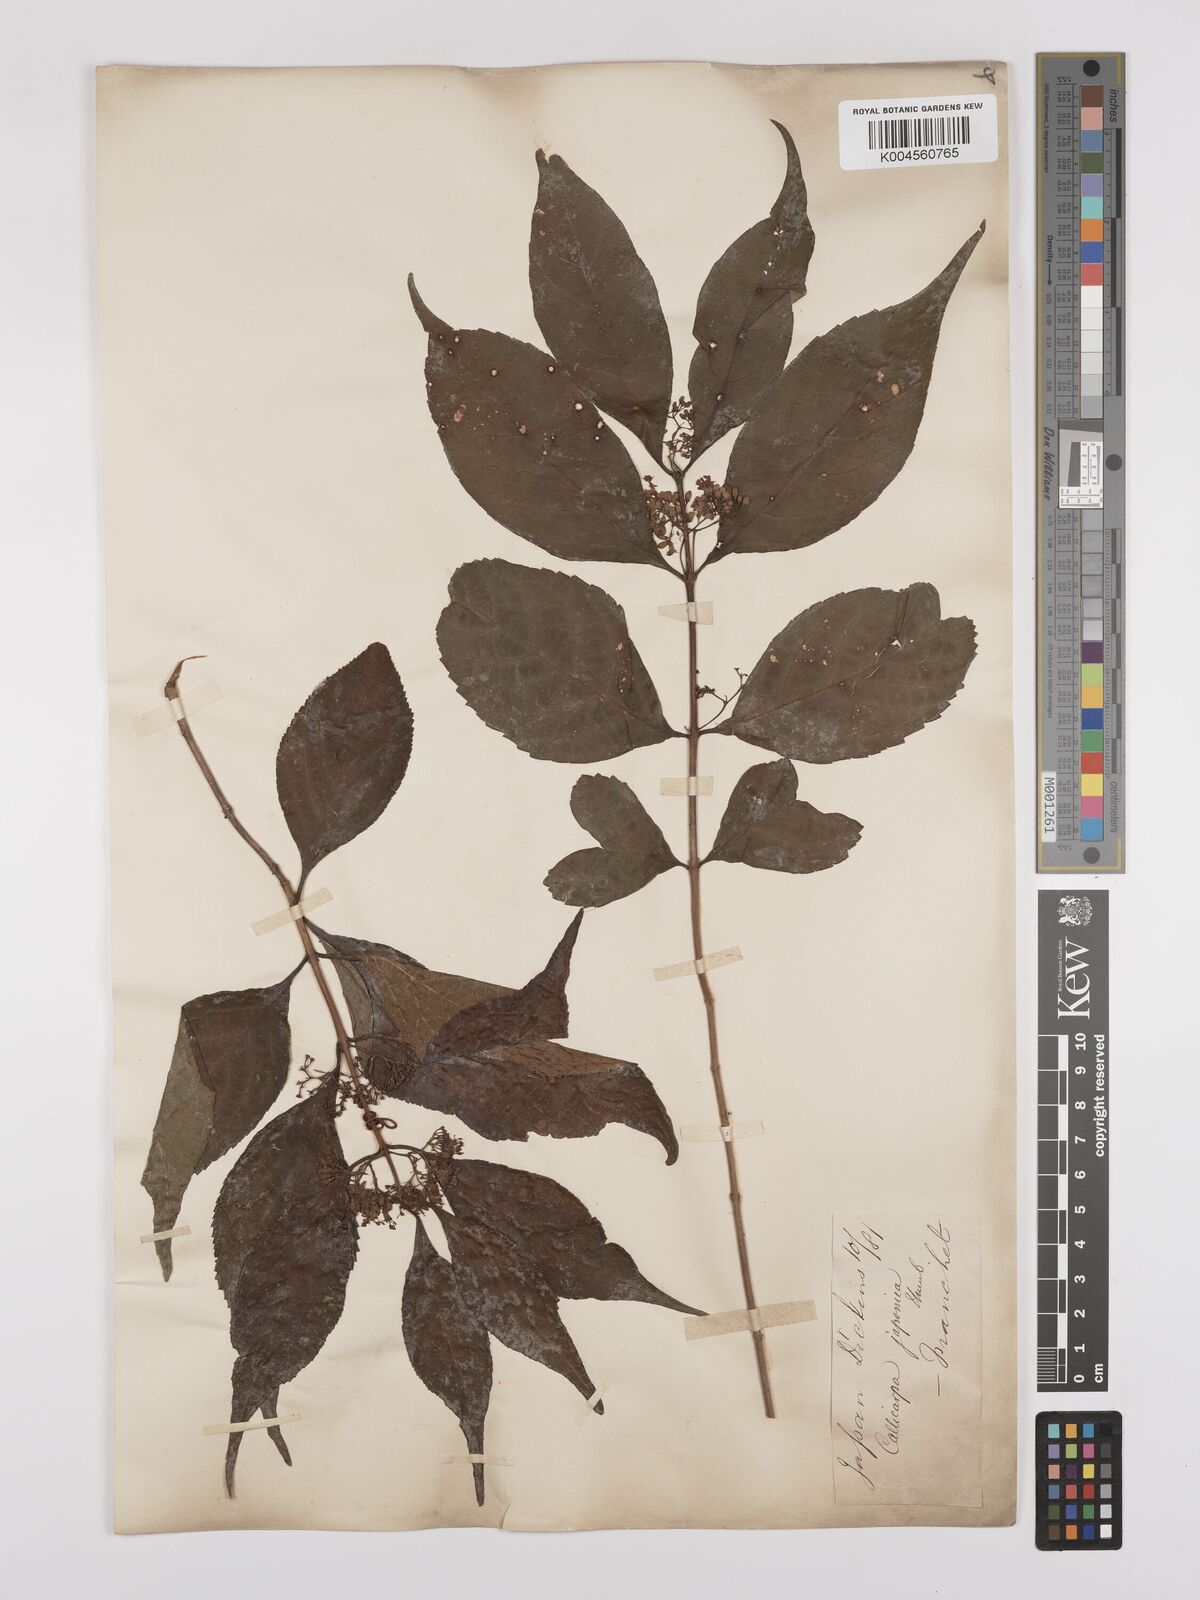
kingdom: Plantae
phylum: Tracheophyta
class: Magnoliopsida
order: Lamiales
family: Lamiaceae
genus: Callicarpa
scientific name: Callicarpa japonica
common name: Japanese beauty-berry
